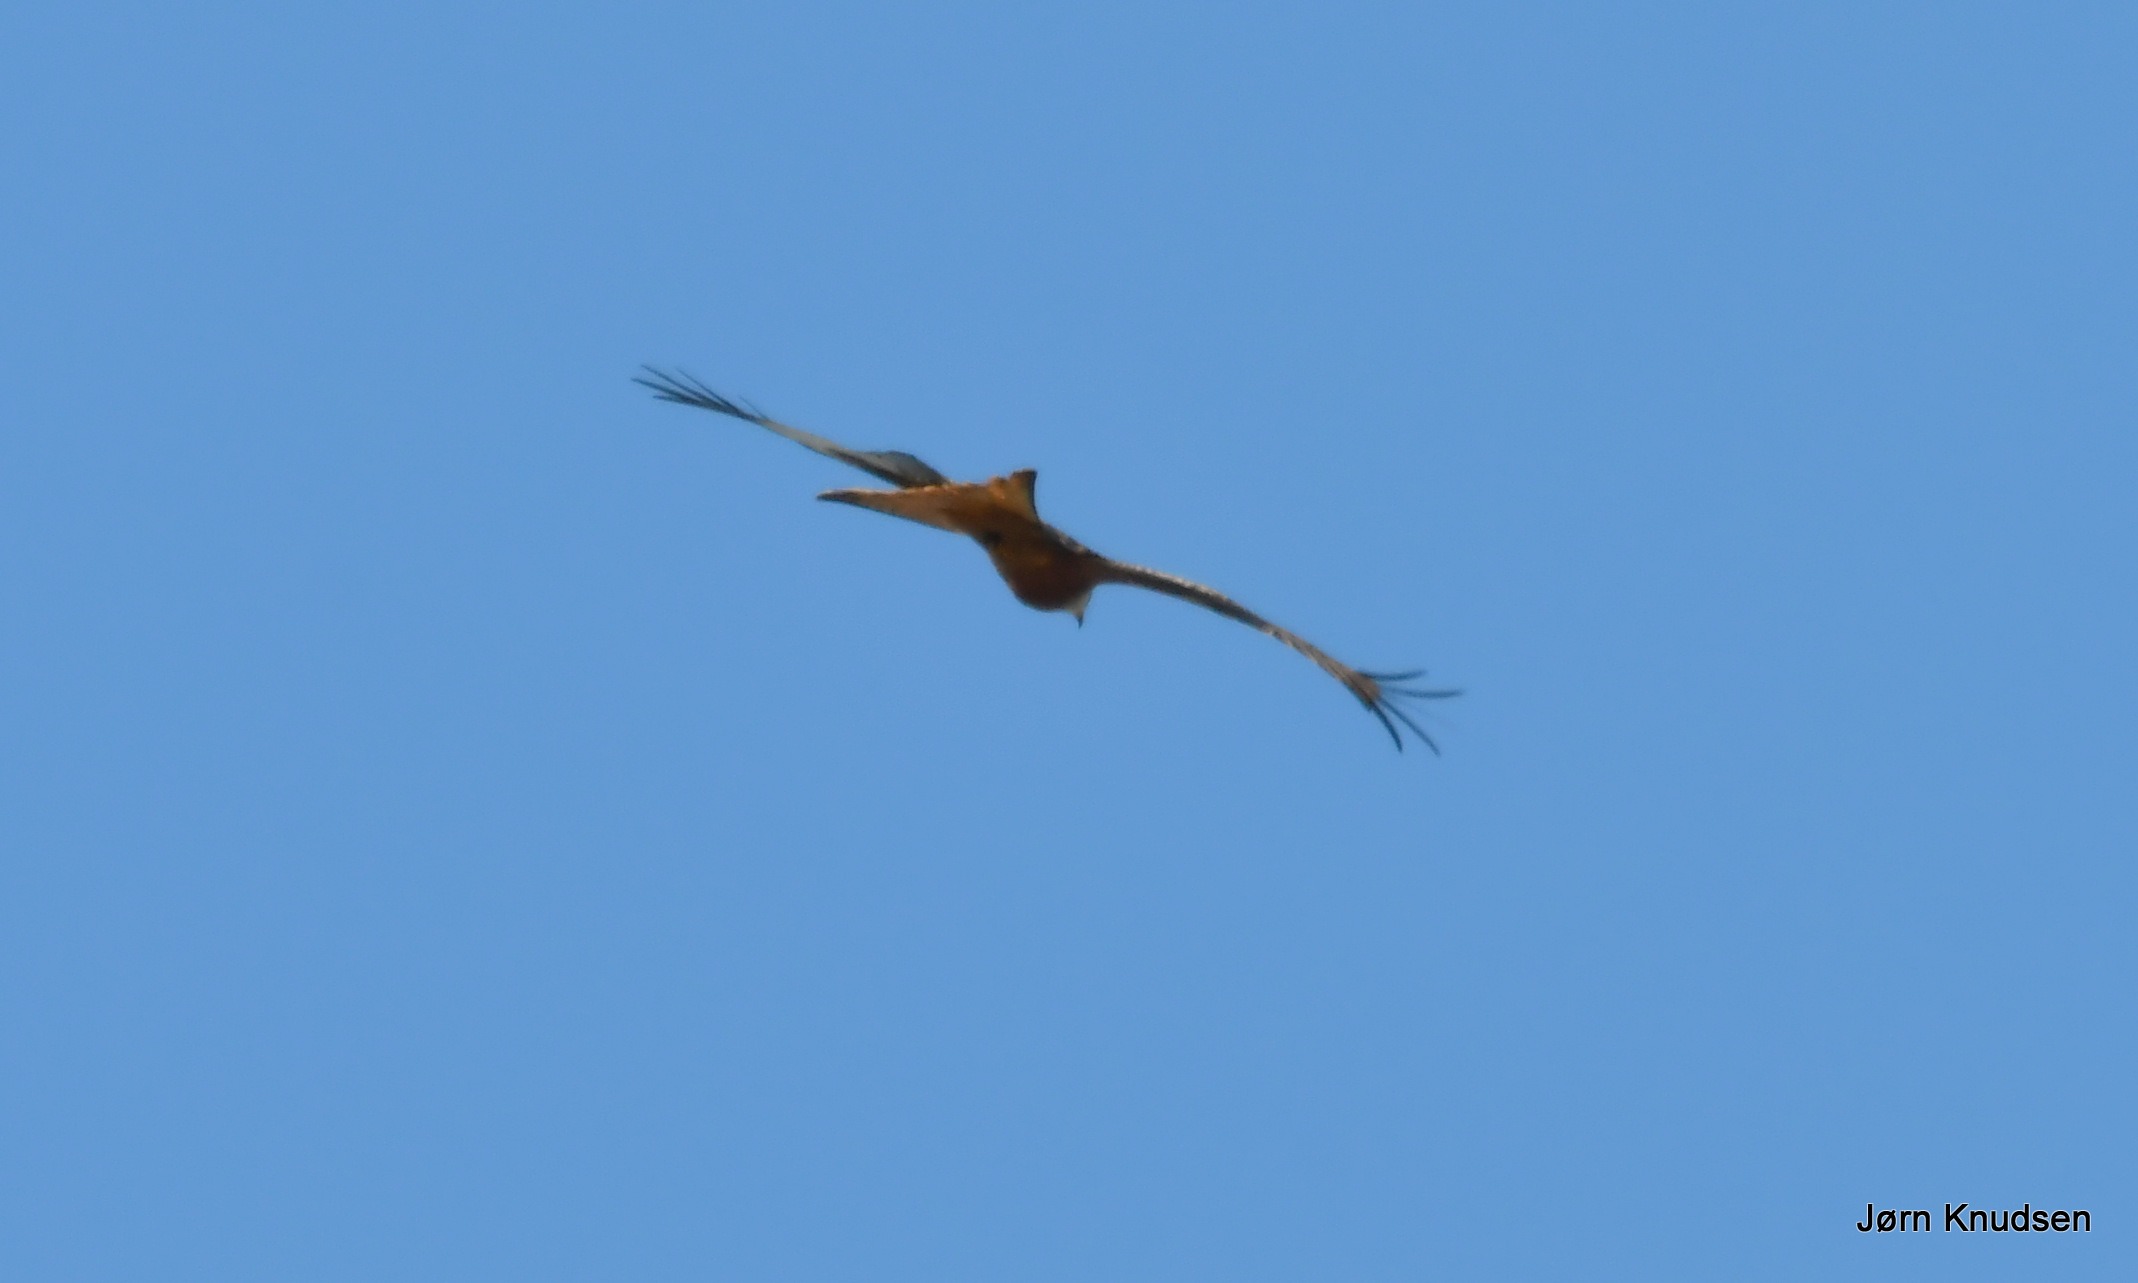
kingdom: Animalia
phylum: Chordata
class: Aves
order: Accipitriformes
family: Accipitridae
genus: Milvus
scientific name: Milvus milvus
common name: Rød glente
